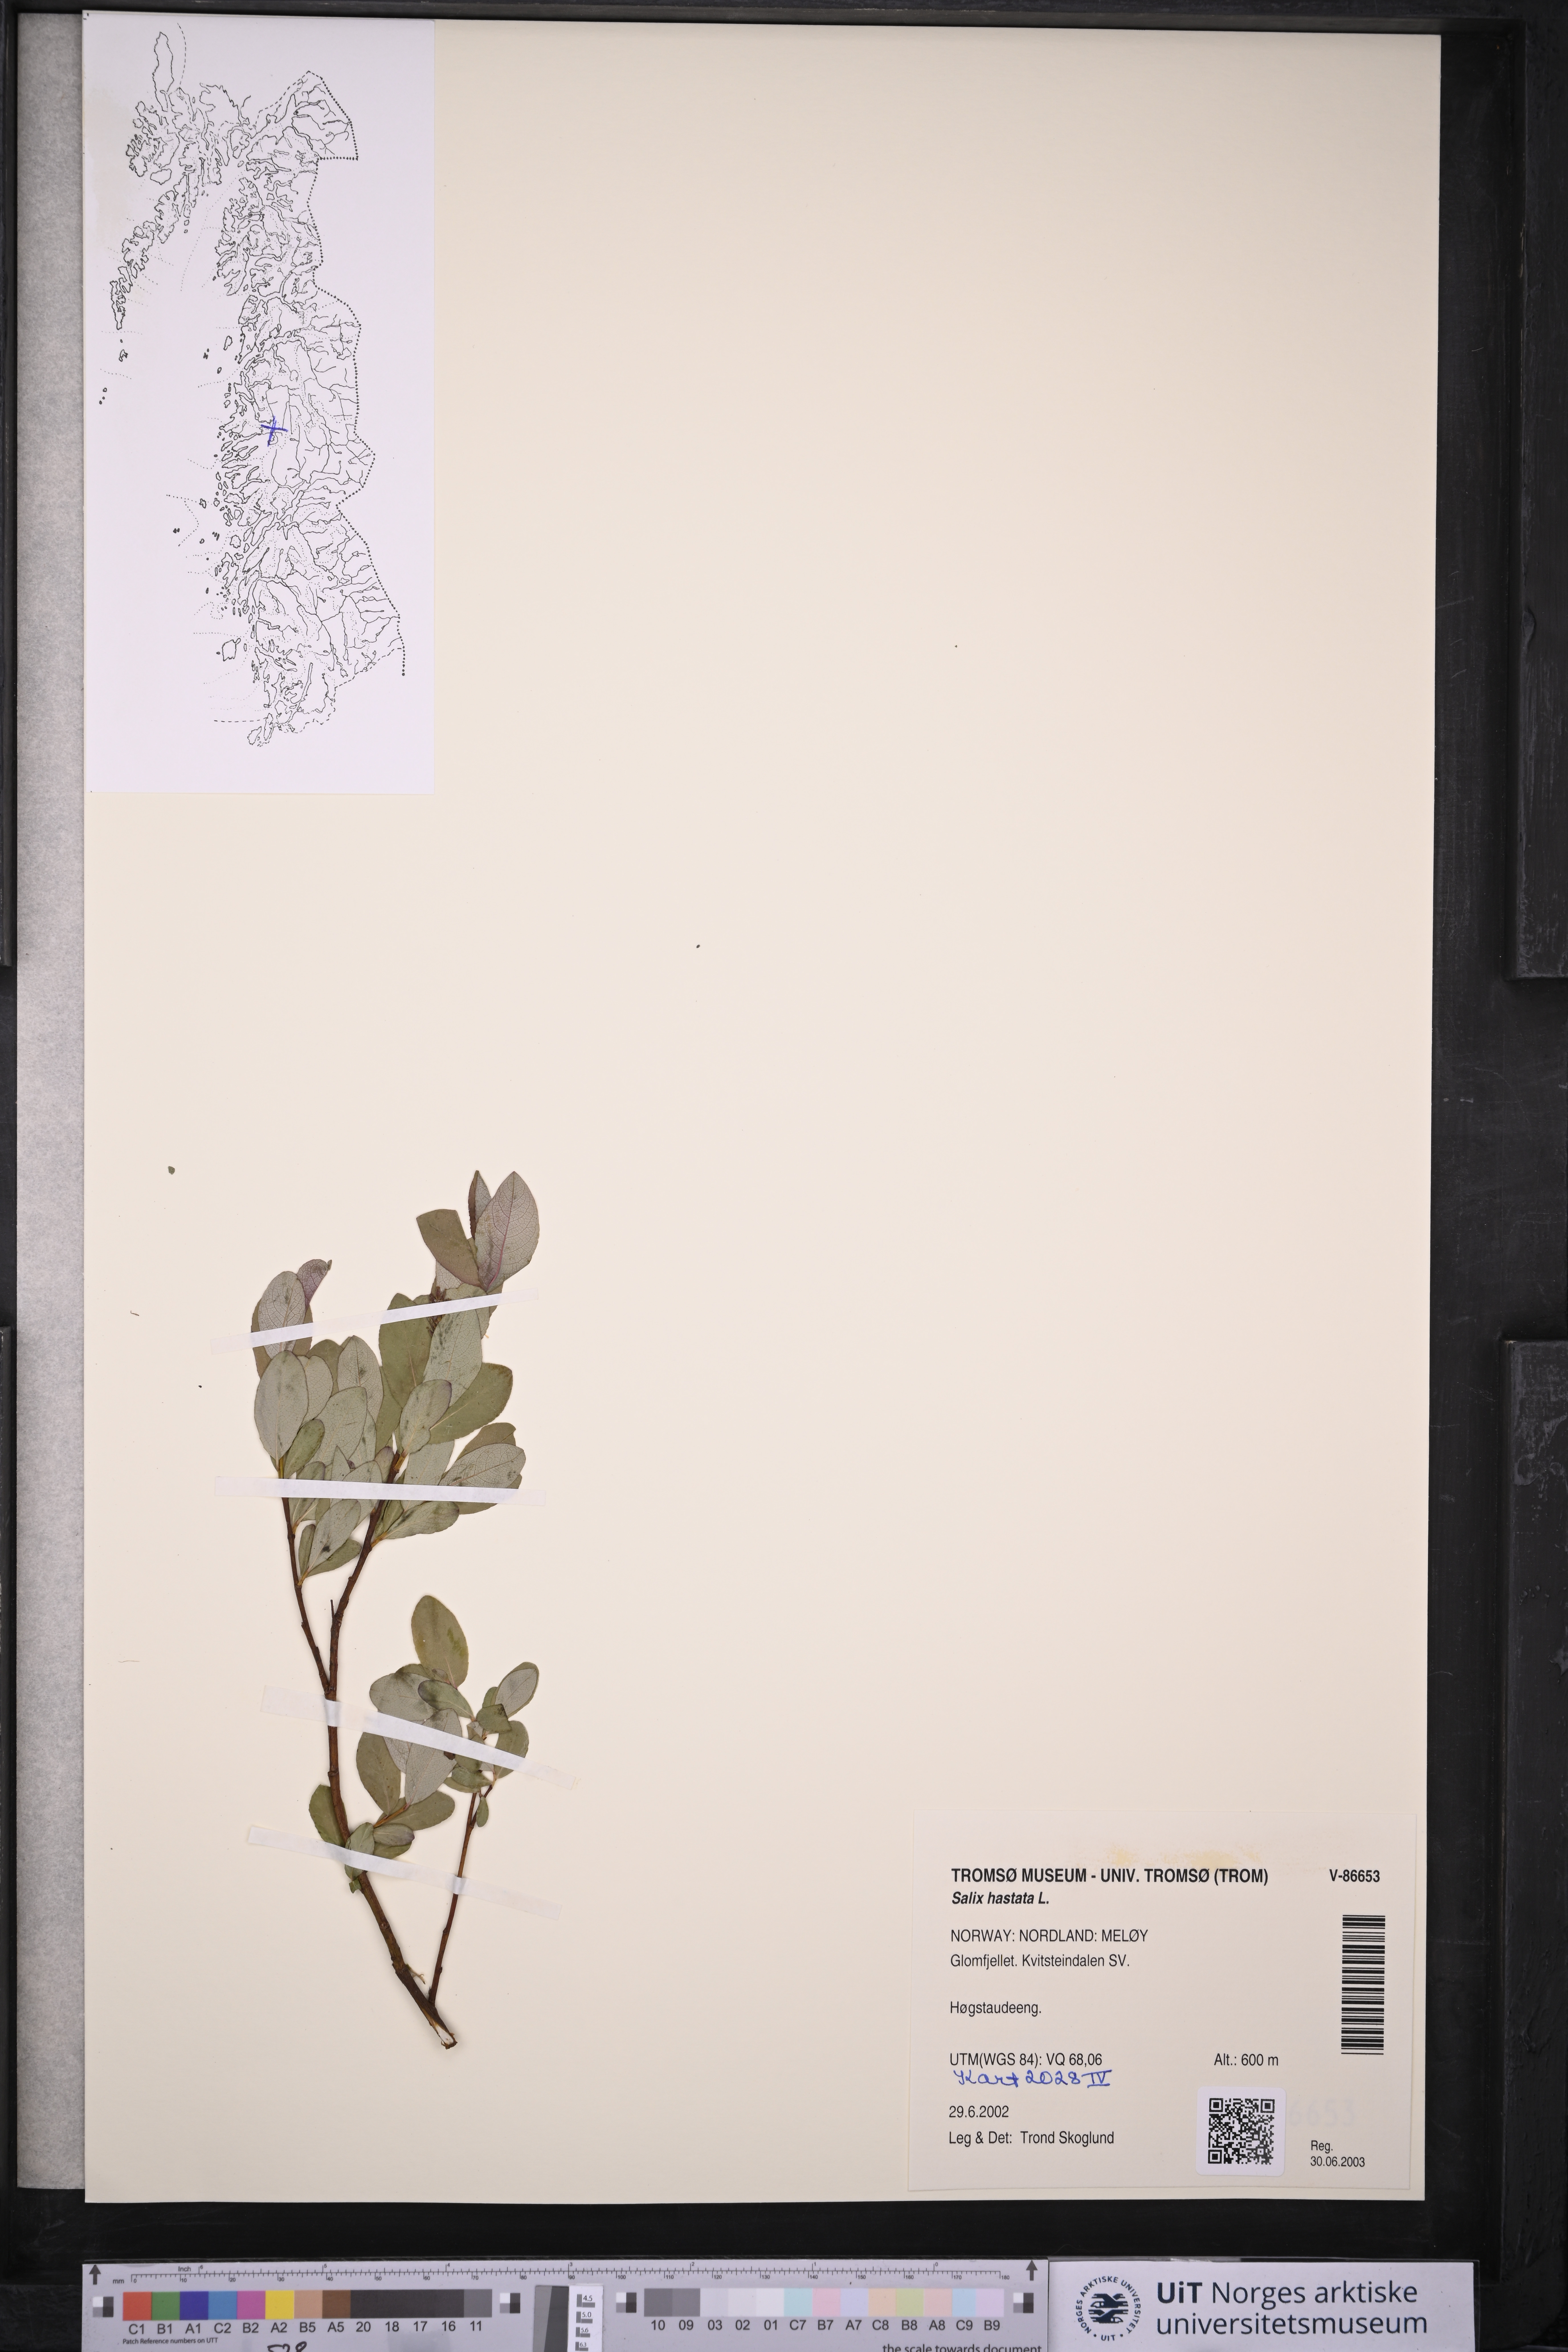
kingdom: Plantae
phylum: Tracheophyta
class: Magnoliopsida
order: Malpighiales
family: Salicaceae
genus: Salix
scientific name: Salix hastata
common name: Halberd willow
